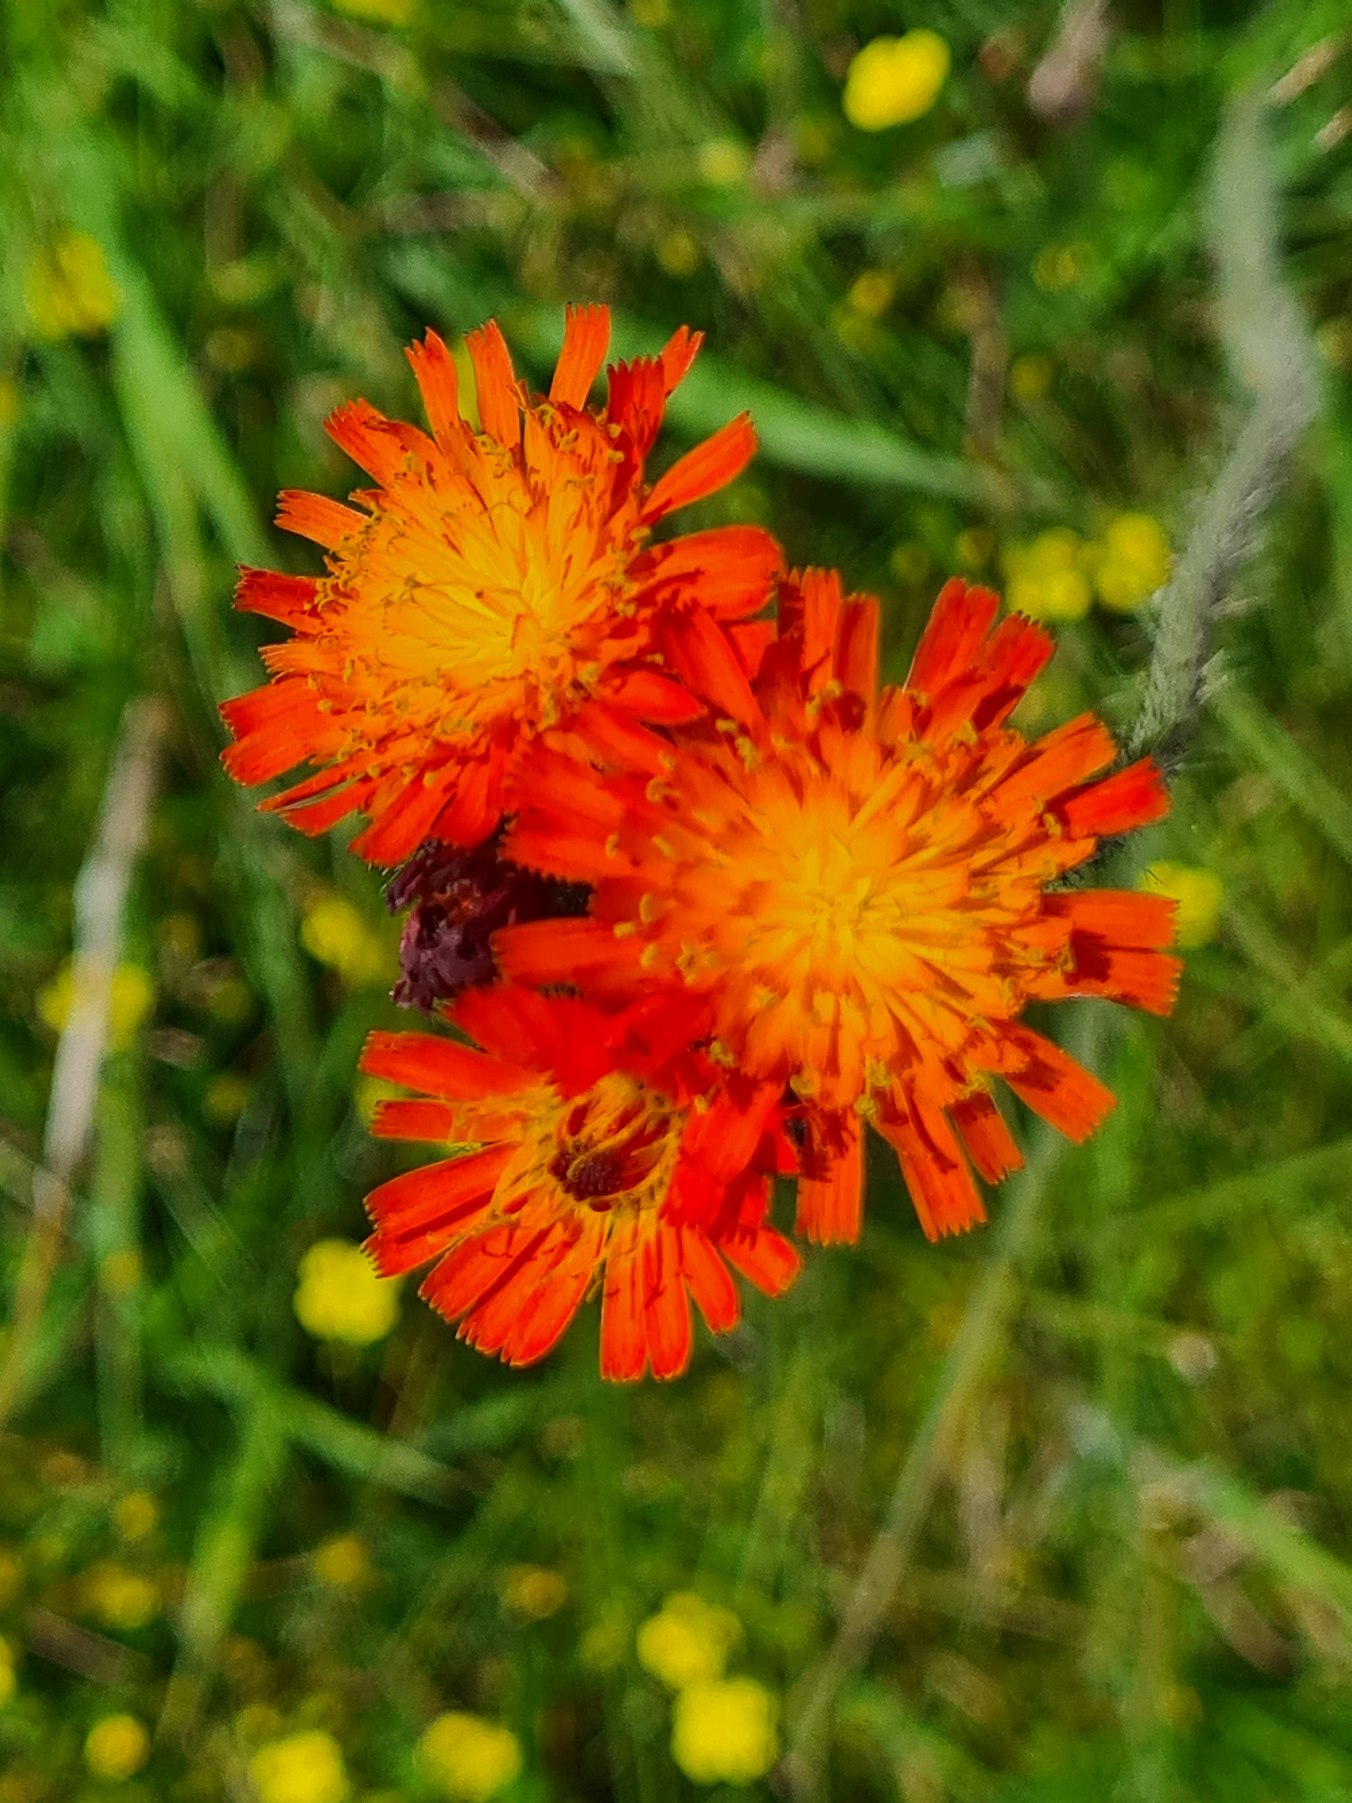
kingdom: Plantae
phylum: Tracheophyta
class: Magnoliopsida
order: Asterales
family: Asteraceae
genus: Pilosella
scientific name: Pilosella aurantiaca
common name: Pomerans-høgeurt
